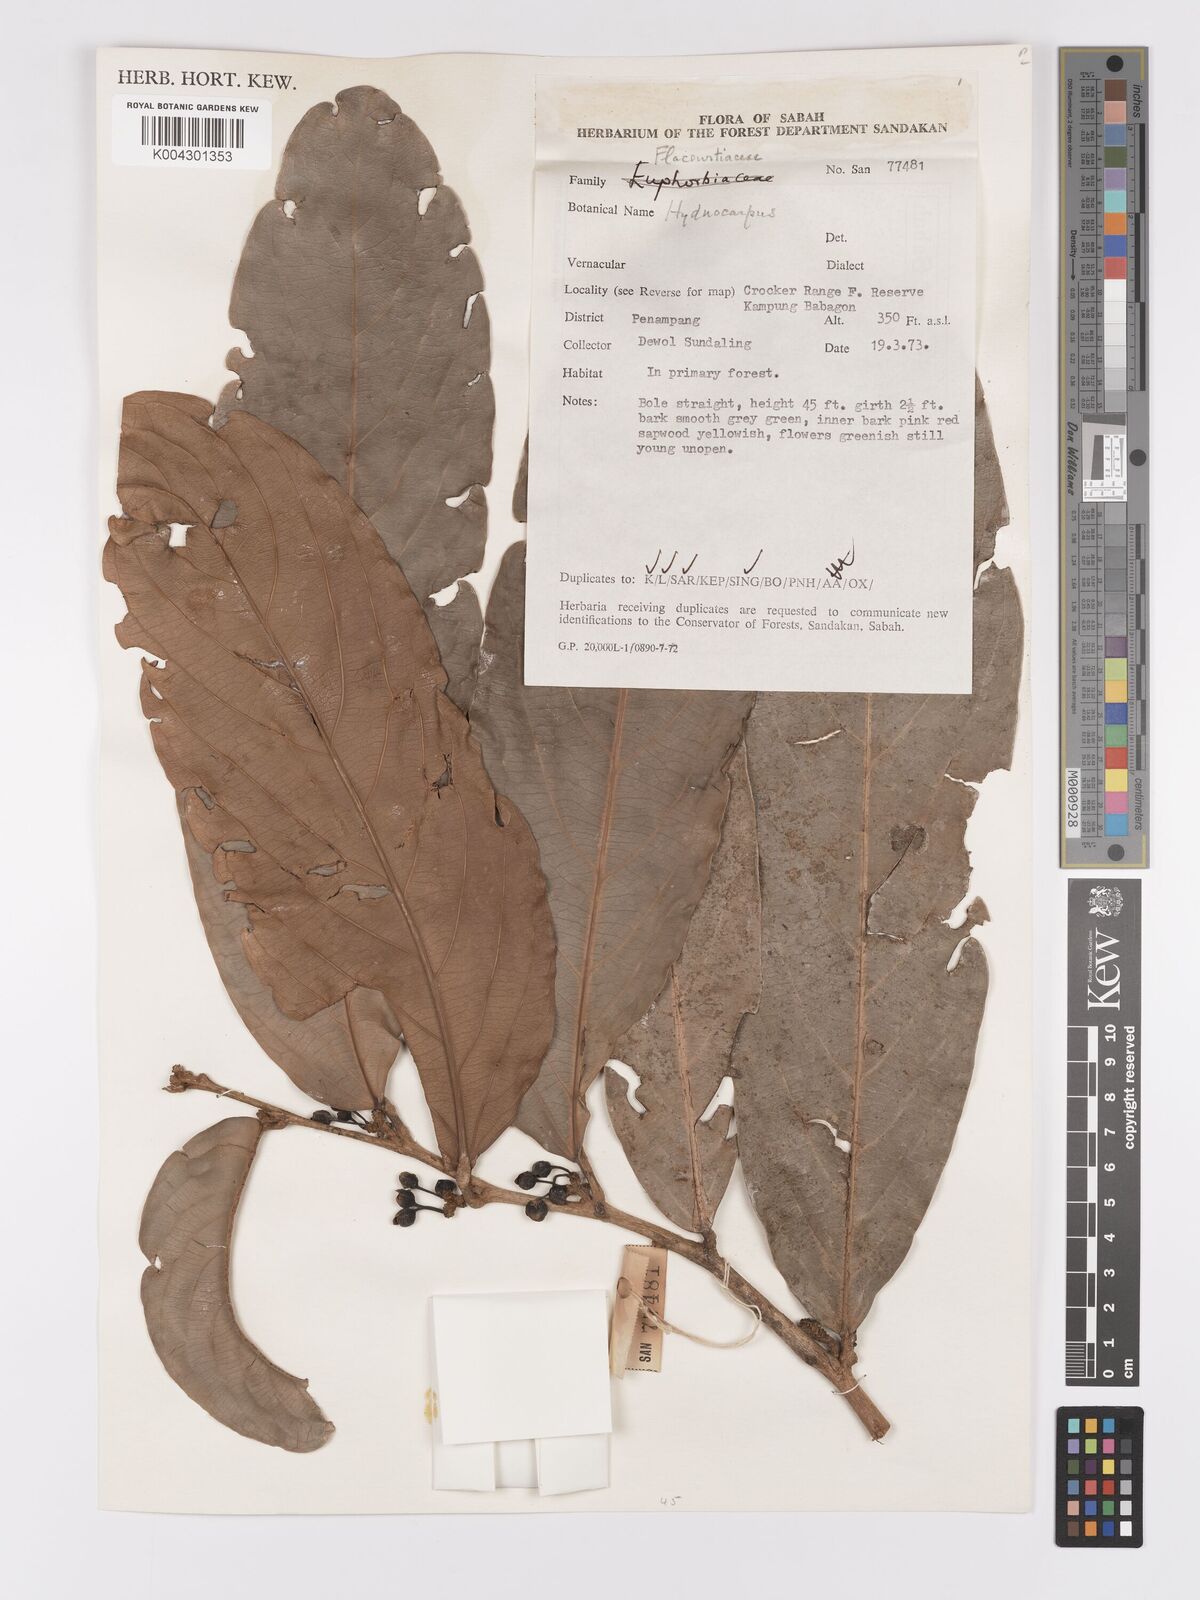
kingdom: Plantae
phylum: Tracheophyta
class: Magnoliopsida
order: Malpighiales
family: Achariaceae
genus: Hydnocarpus
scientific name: Hydnocarpus
